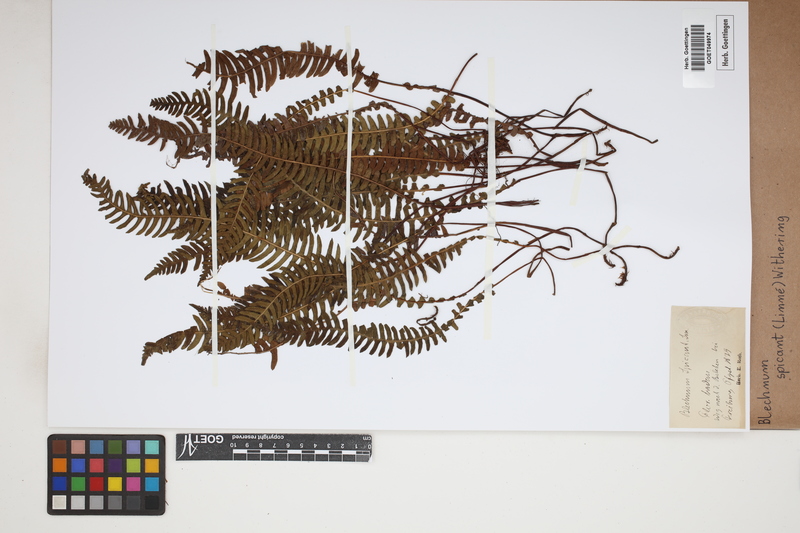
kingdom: Plantae
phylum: Tracheophyta
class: Polypodiopsida
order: Polypodiales
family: Blechnaceae
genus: Struthiopteris
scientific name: Struthiopteris spicant
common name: Deer fern
